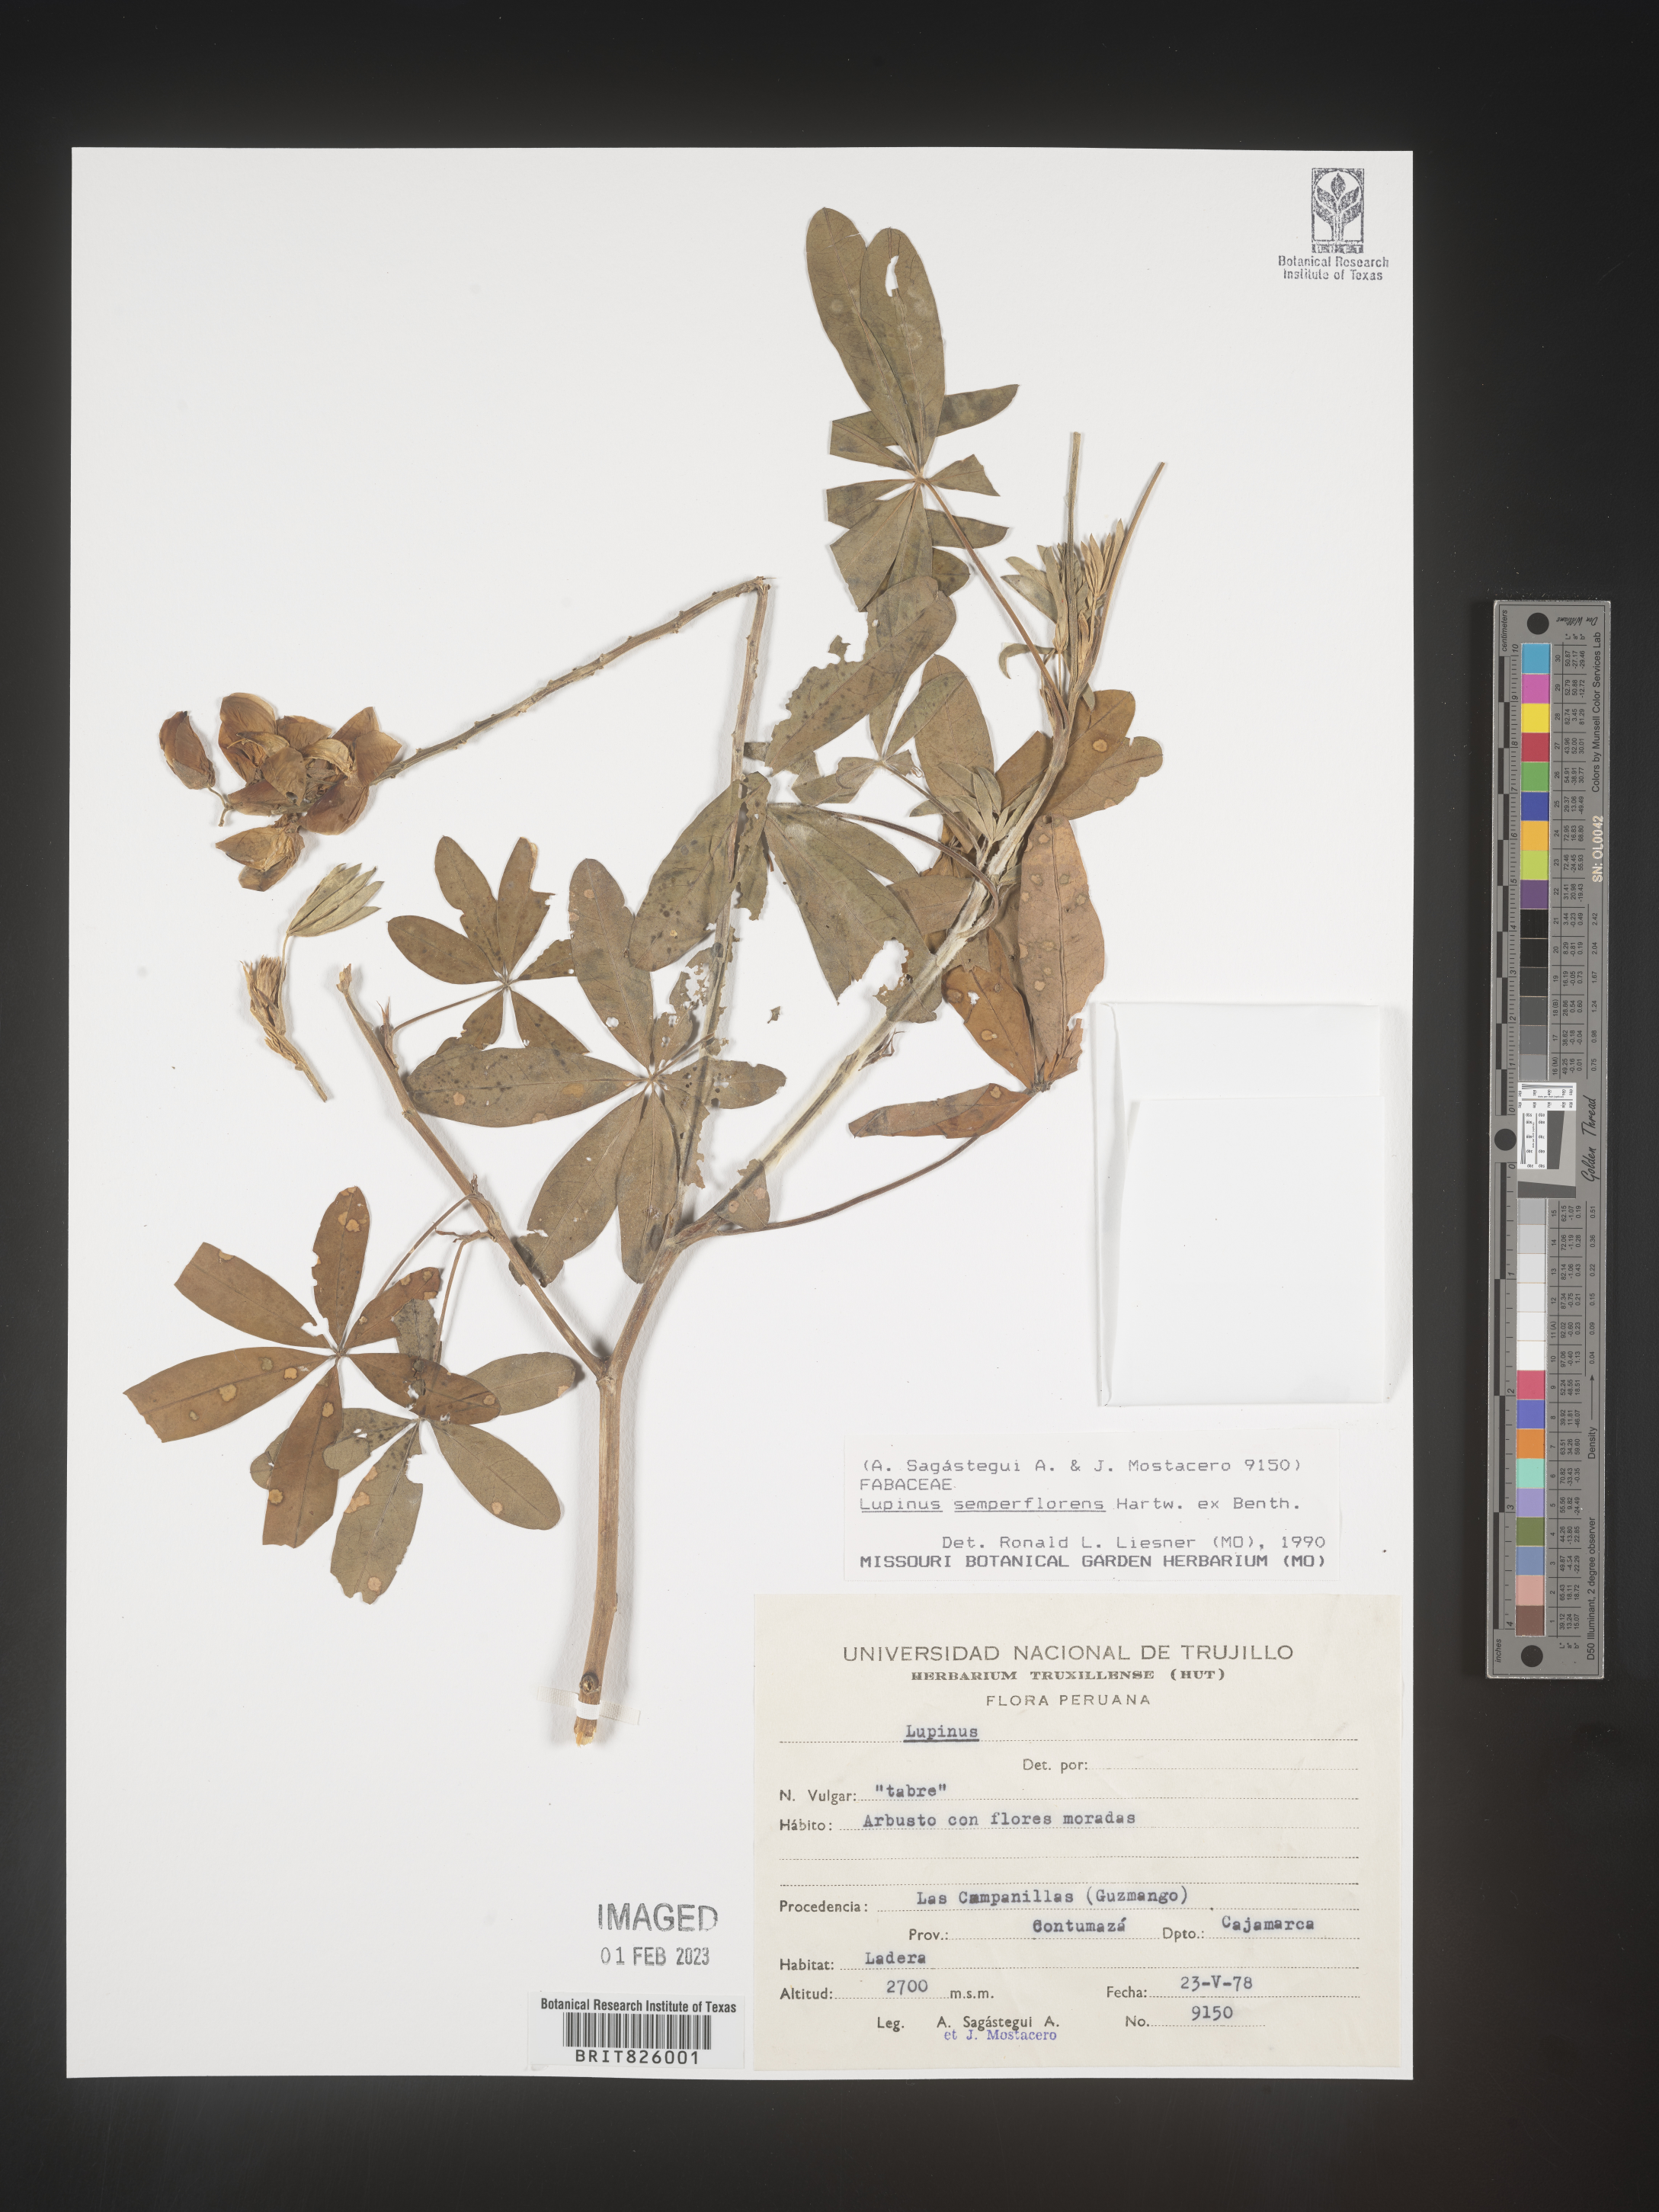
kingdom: Plantae
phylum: Tracheophyta
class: Magnoliopsida
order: Fabales
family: Fabaceae
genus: Lupinus
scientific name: Lupinus
